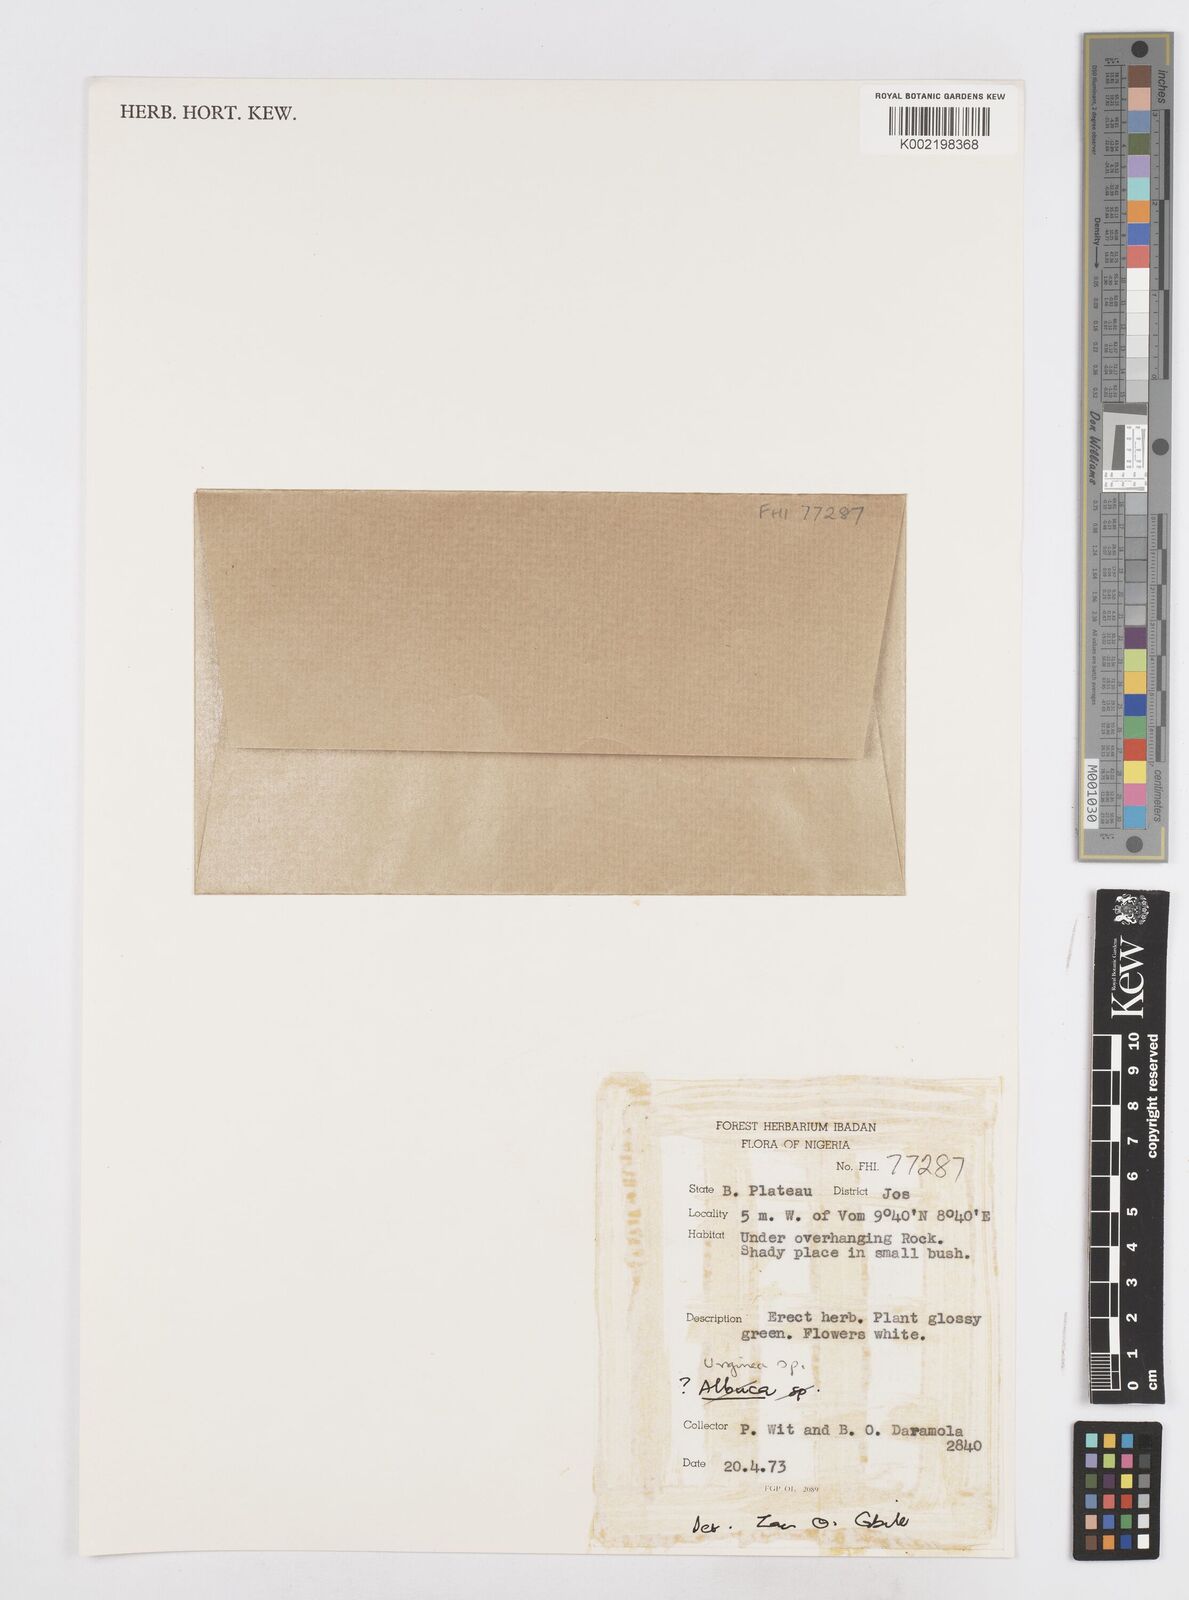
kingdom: Plantae
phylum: Tracheophyta
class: Liliopsida
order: Asparagales
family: Asparagaceae
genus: Drimia
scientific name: Drimia
